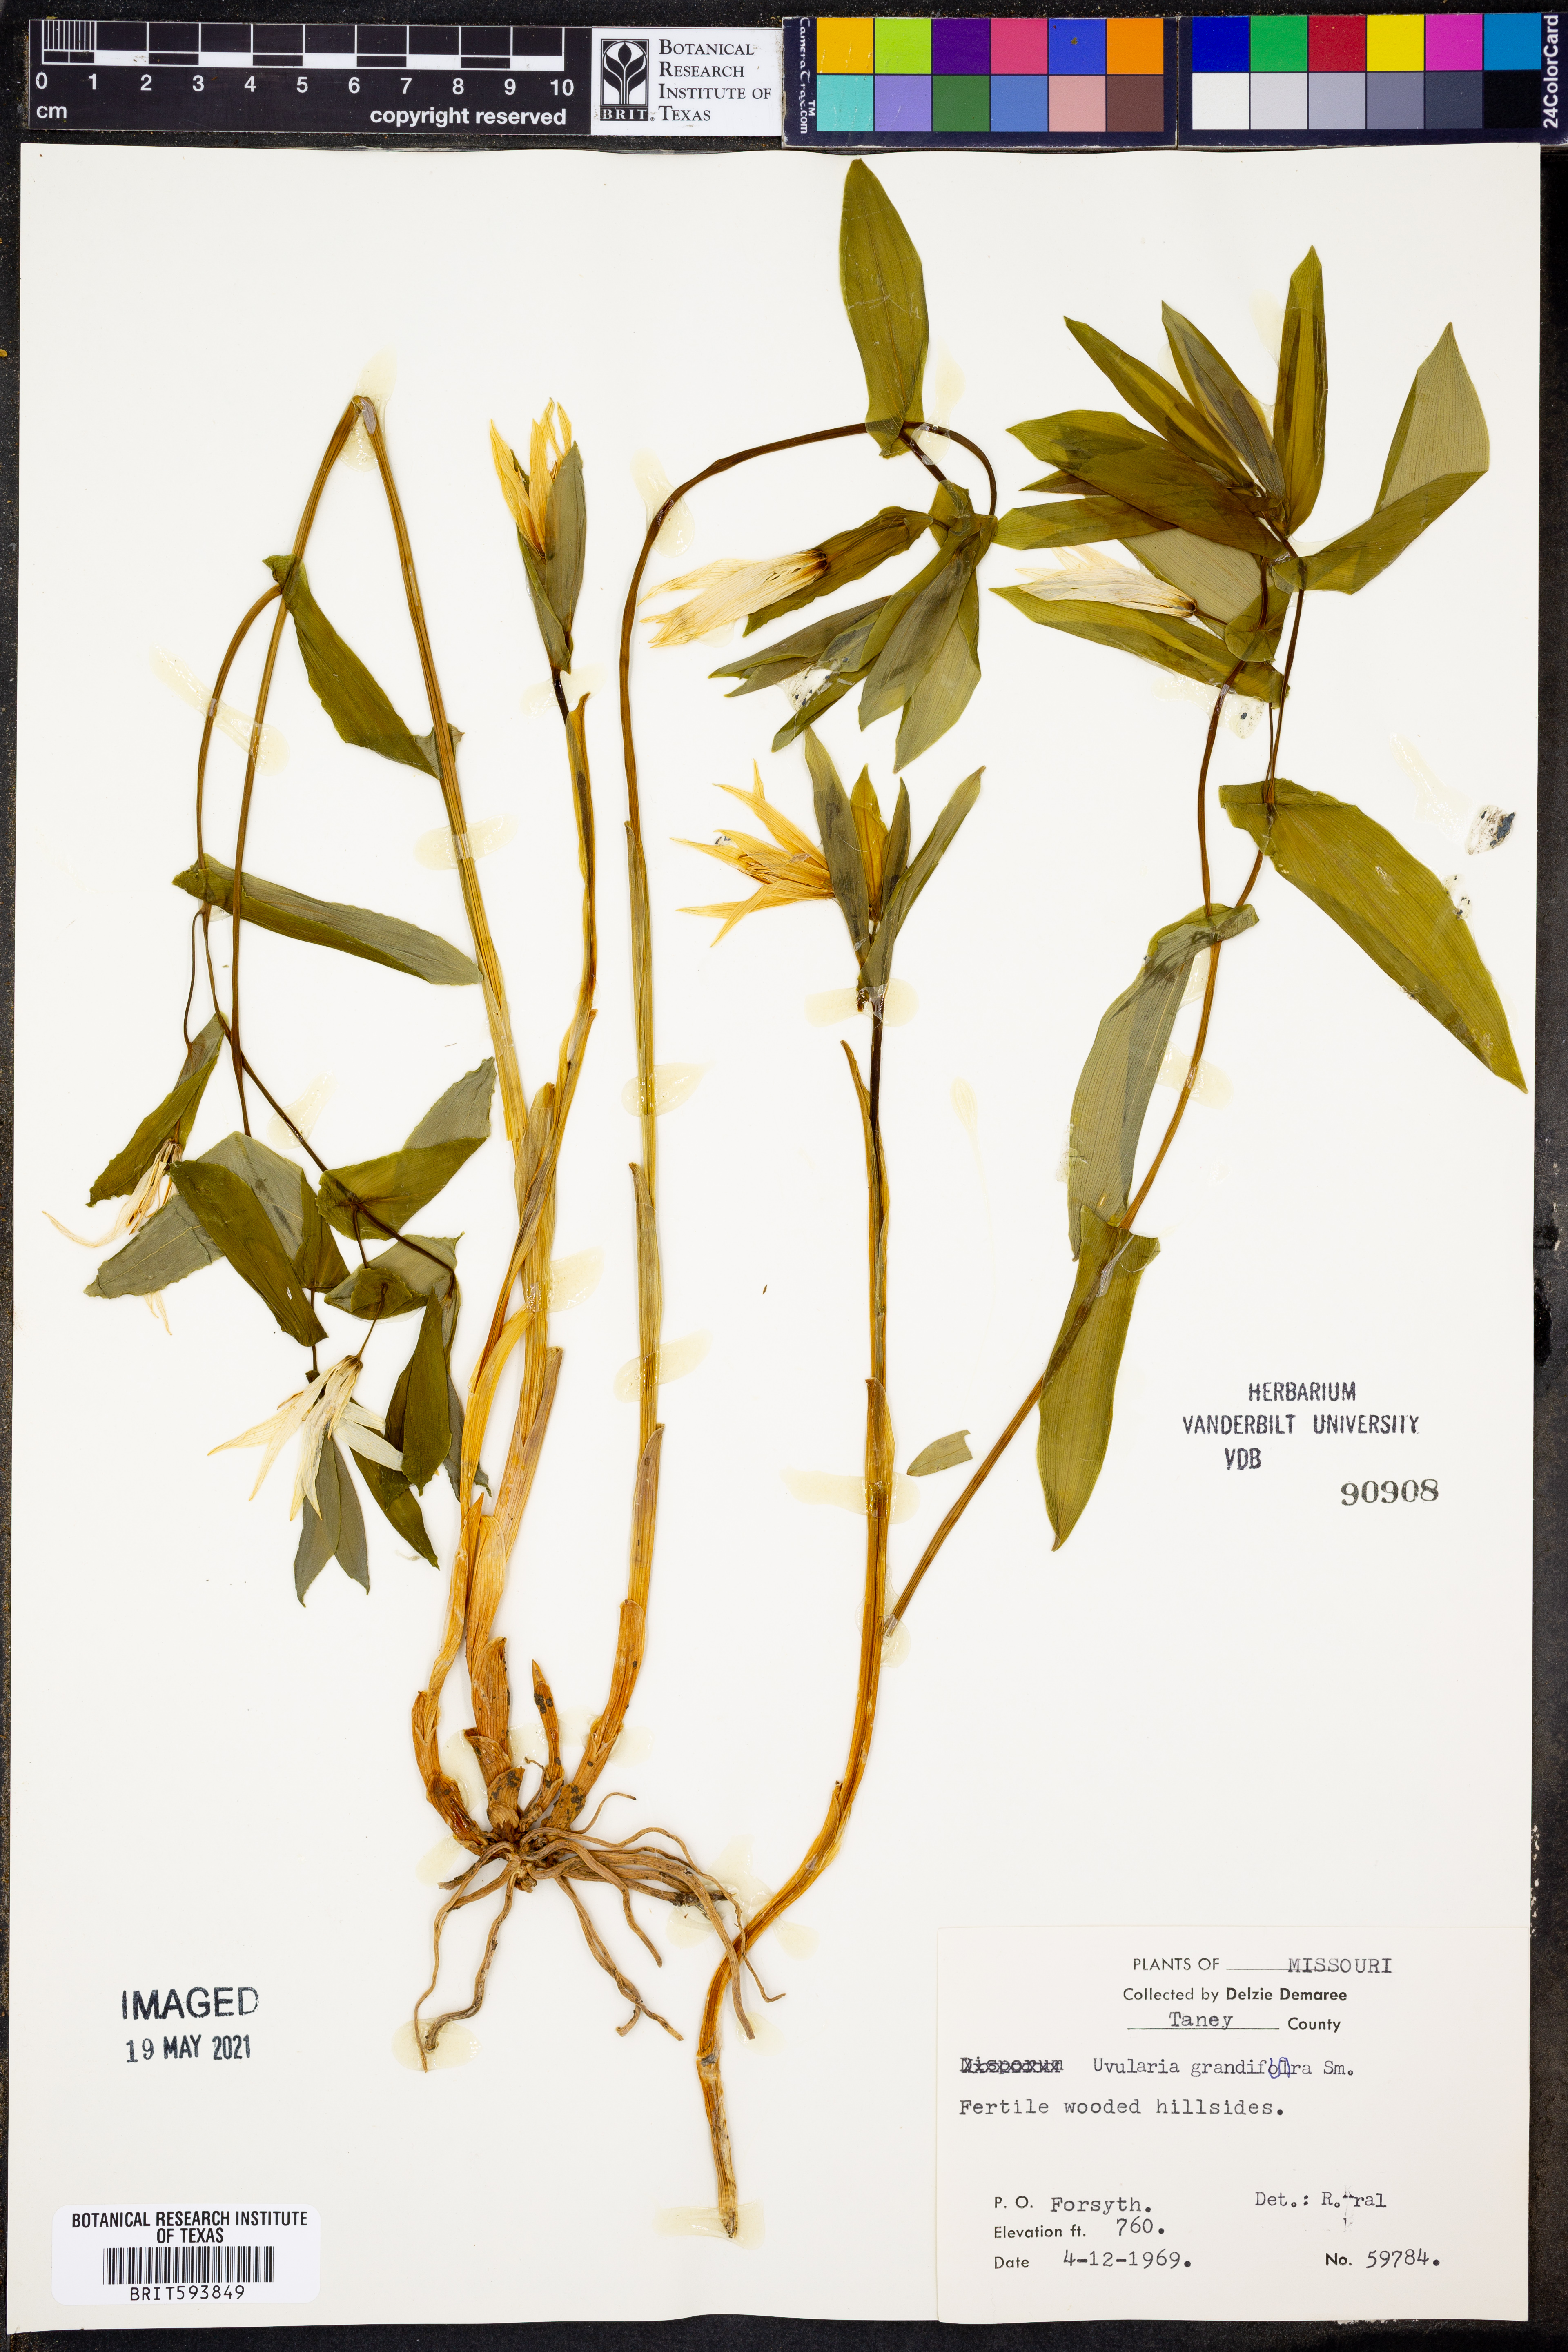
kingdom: Plantae
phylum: Tracheophyta
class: Liliopsida
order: Liliales
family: Colchicaceae
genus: Uvularia
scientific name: Uvularia grandiflora
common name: Bellwort
